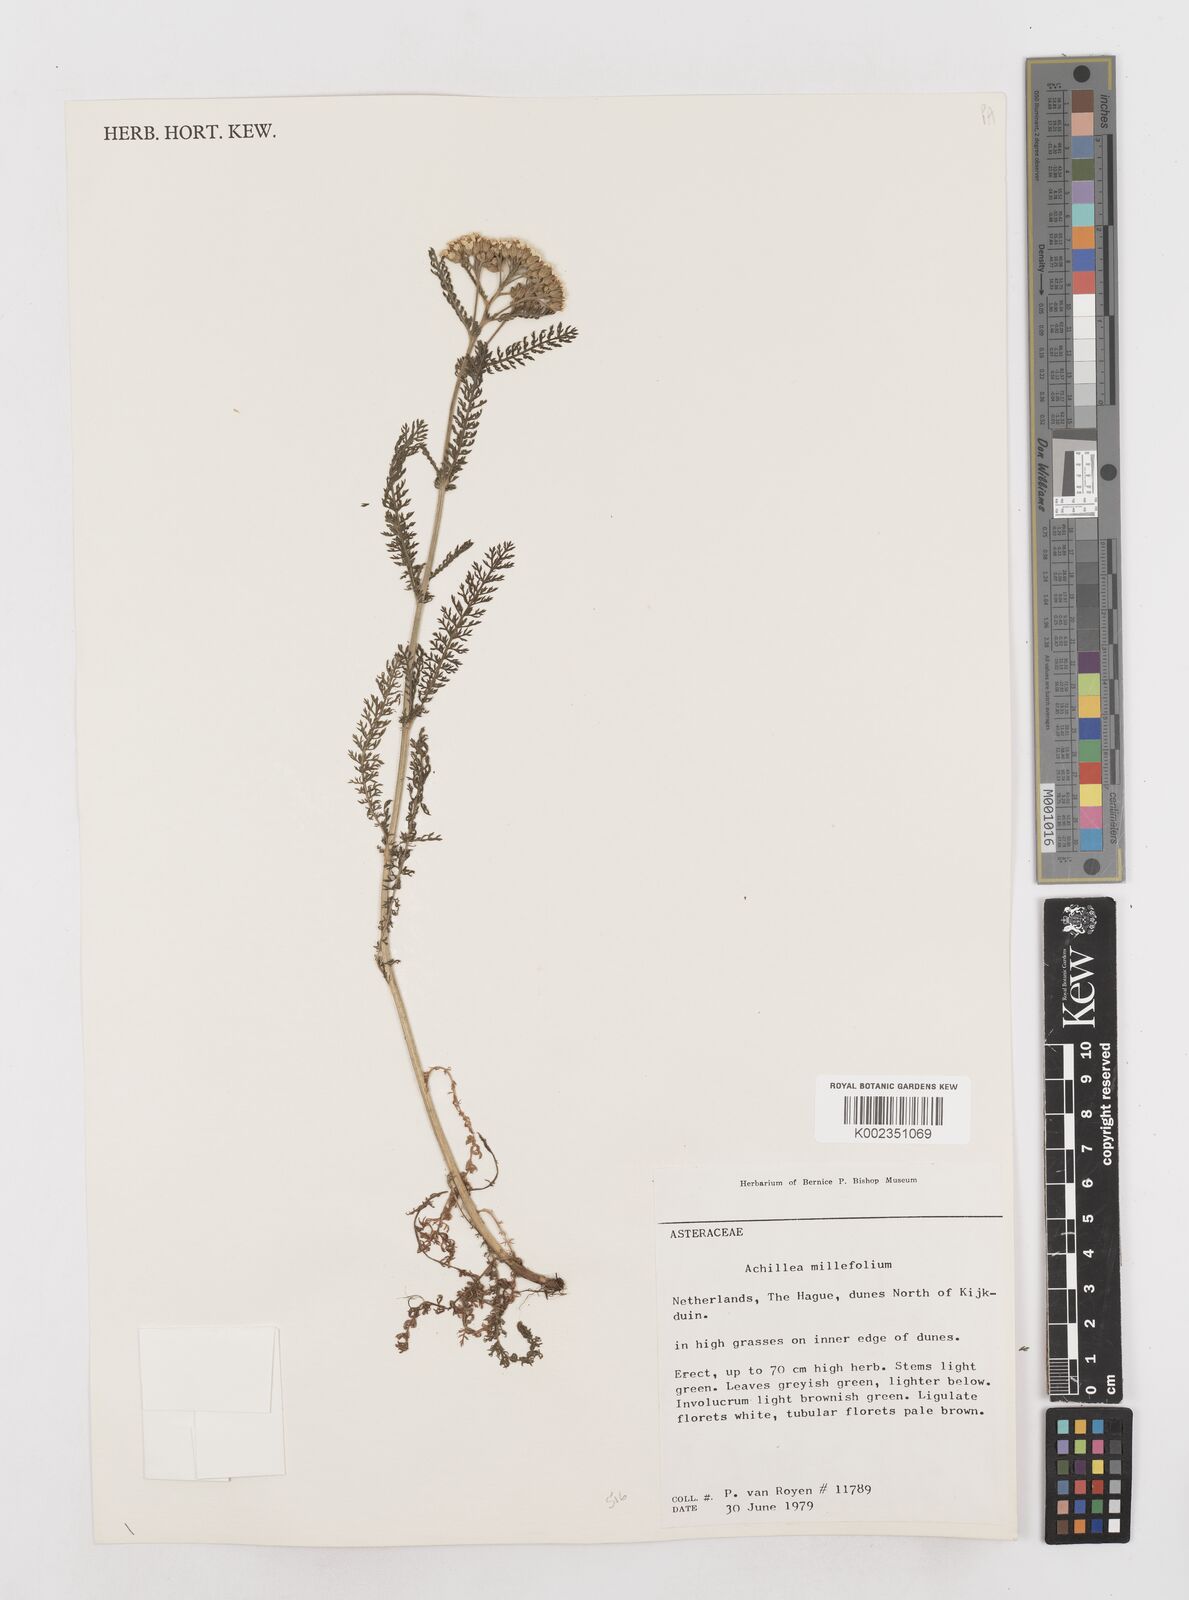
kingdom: Plantae
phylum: Tracheophyta
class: Magnoliopsida
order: Asterales
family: Asteraceae
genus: Achillea
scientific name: Achillea millefolium
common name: Yarrow
